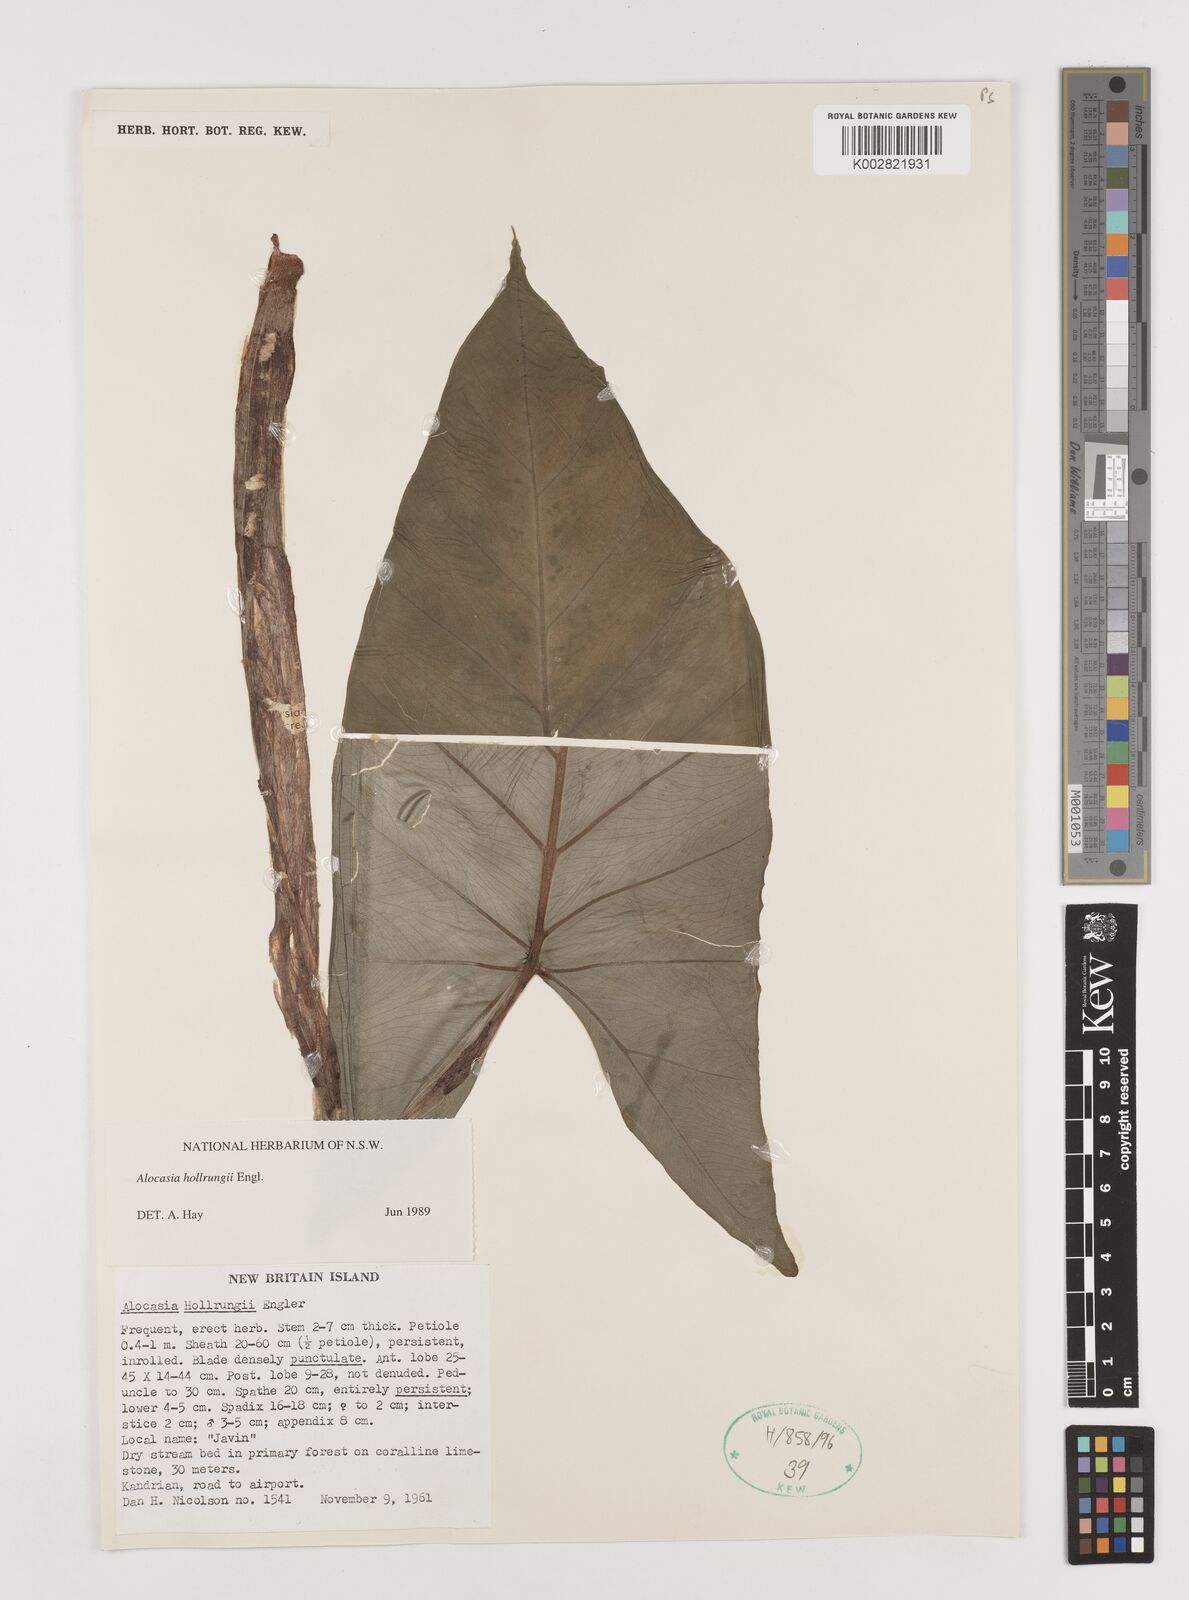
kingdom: Plantae
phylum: Tracheophyta
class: Liliopsida
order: Alismatales
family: Araceae
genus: Alocasia
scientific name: Alocasia hollrungii
